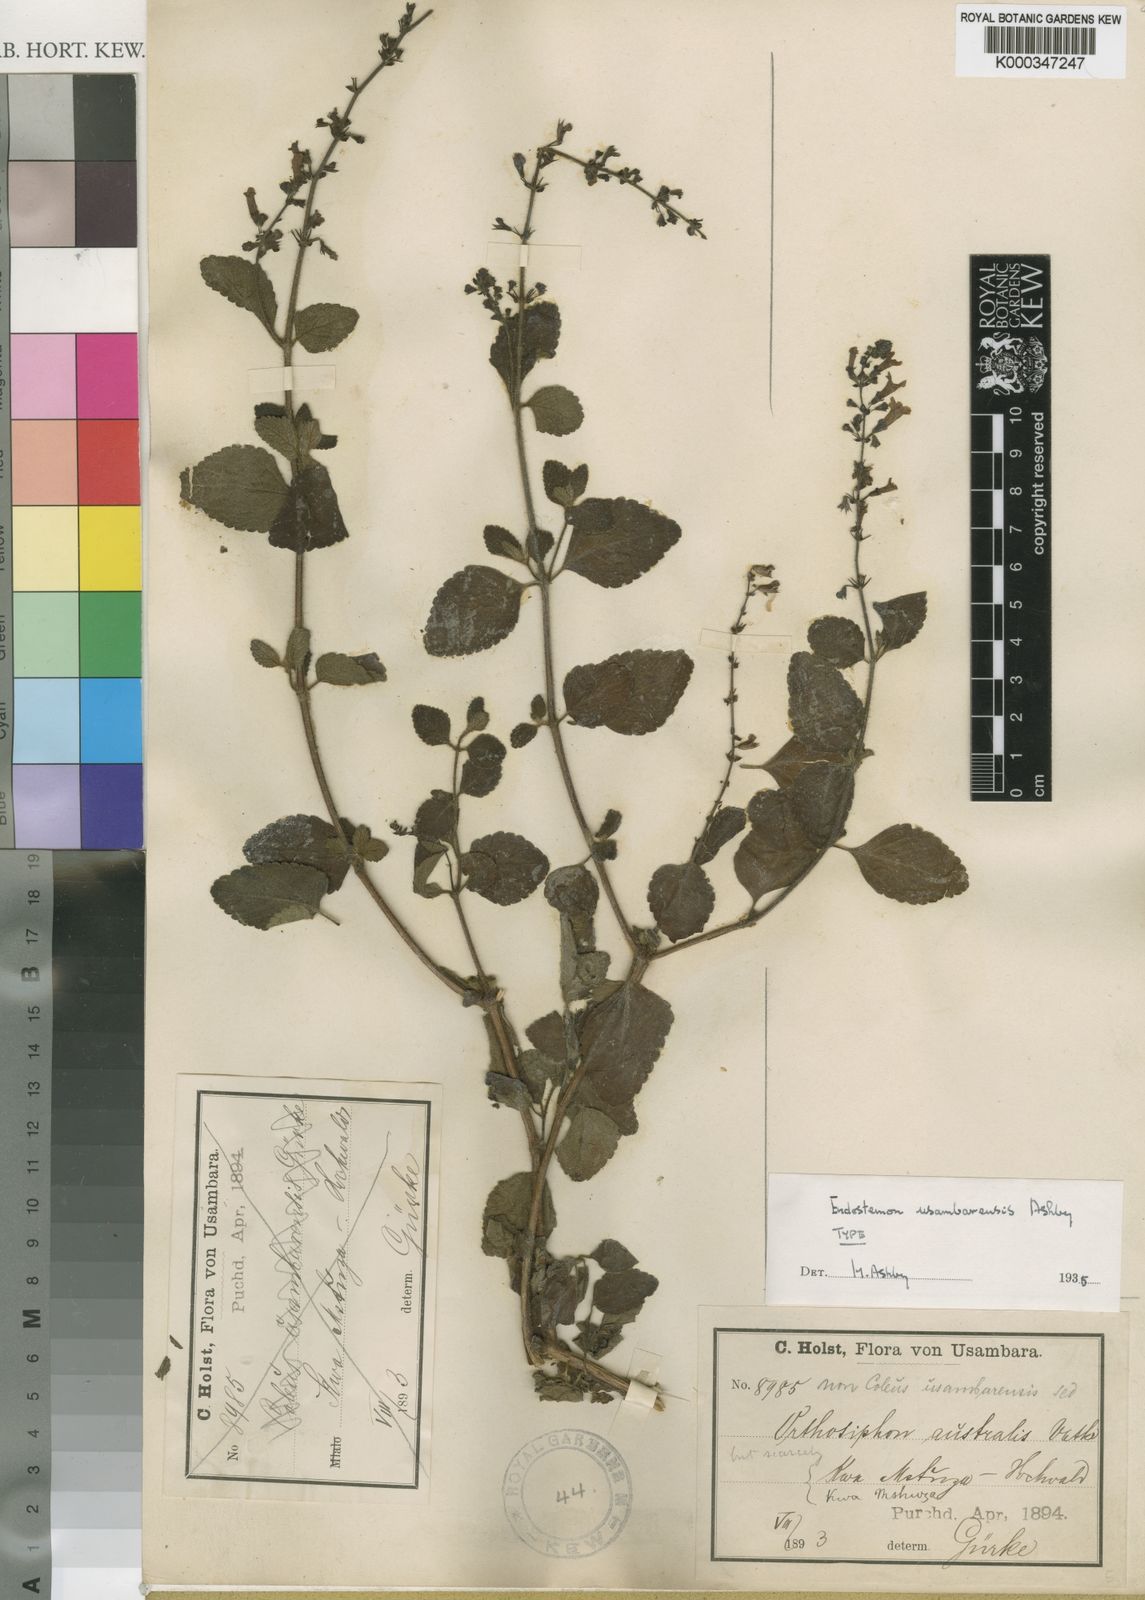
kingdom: Plantae
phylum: Tracheophyta
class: Magnoliopsida
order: Lamiales
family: Lamiaceae
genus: Endostemon
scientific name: Endostemon usambarensis
